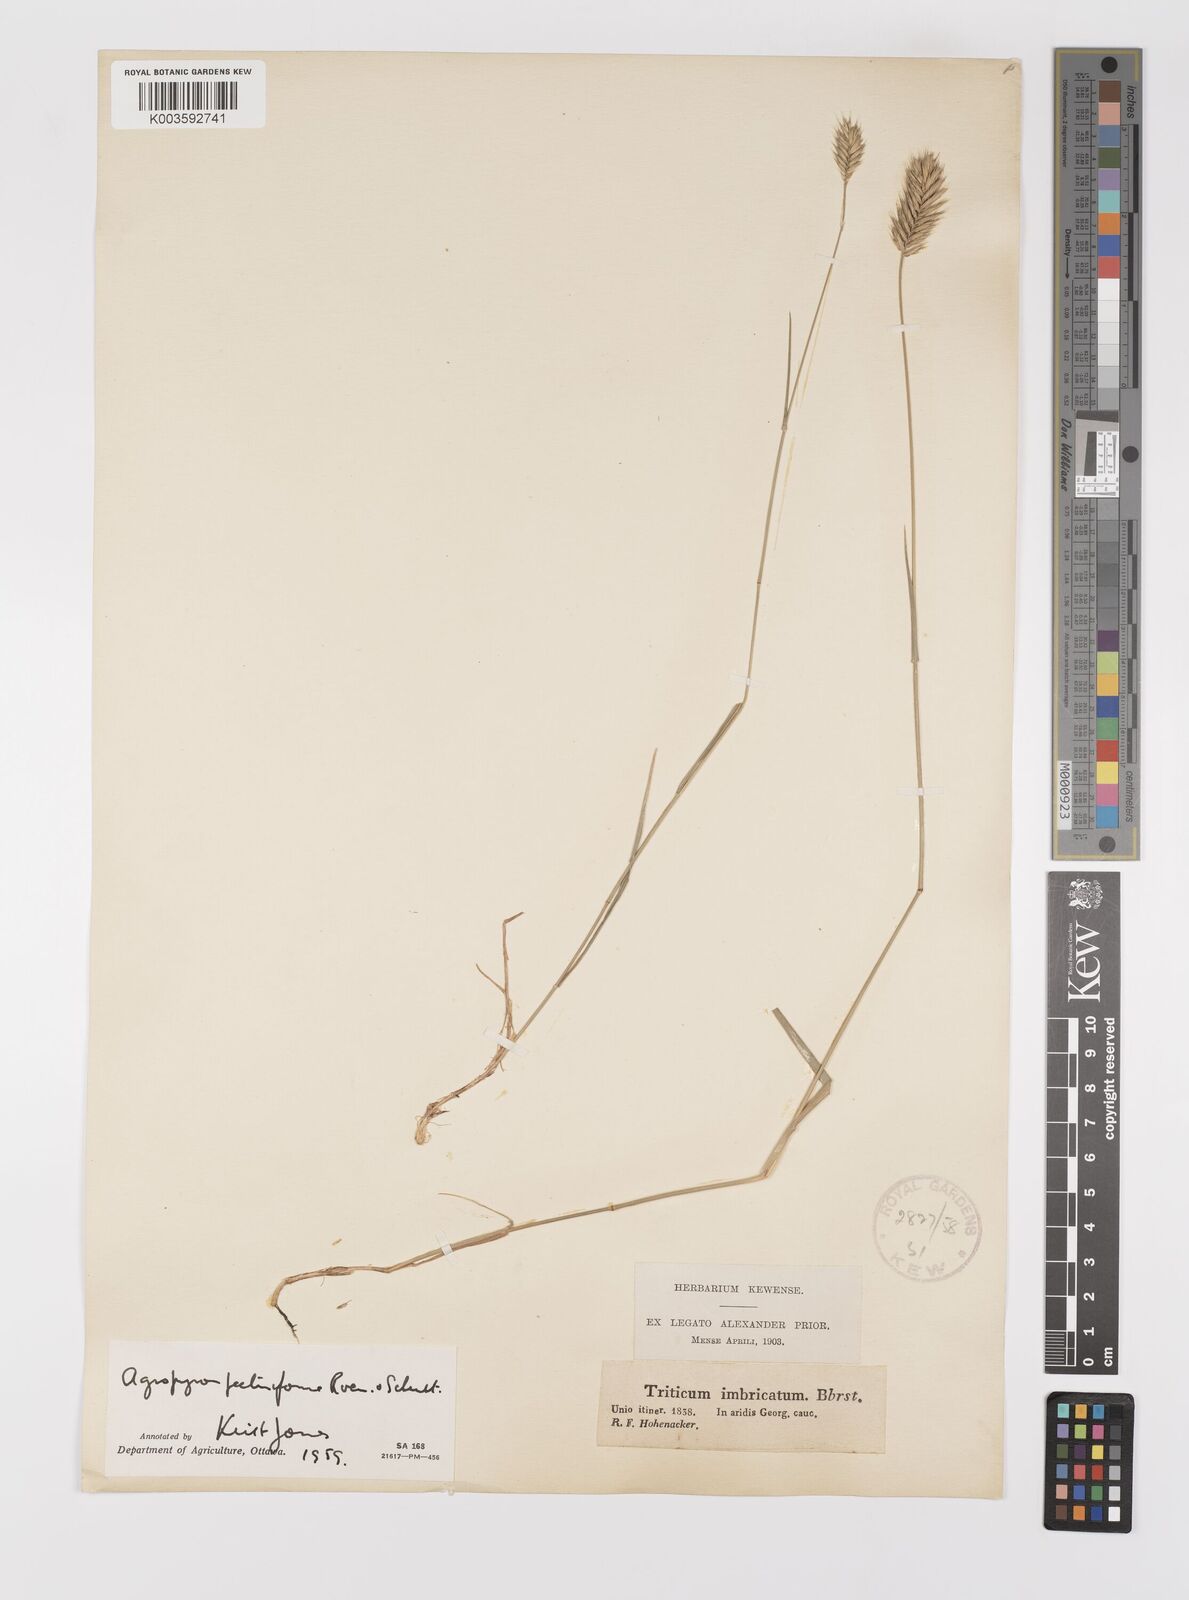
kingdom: Plantae
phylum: Tracheophyta
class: Liliopsida
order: Poales
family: Poaceae
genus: Agropyron
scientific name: Agropyron cristatum
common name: Crested wheatgrass
